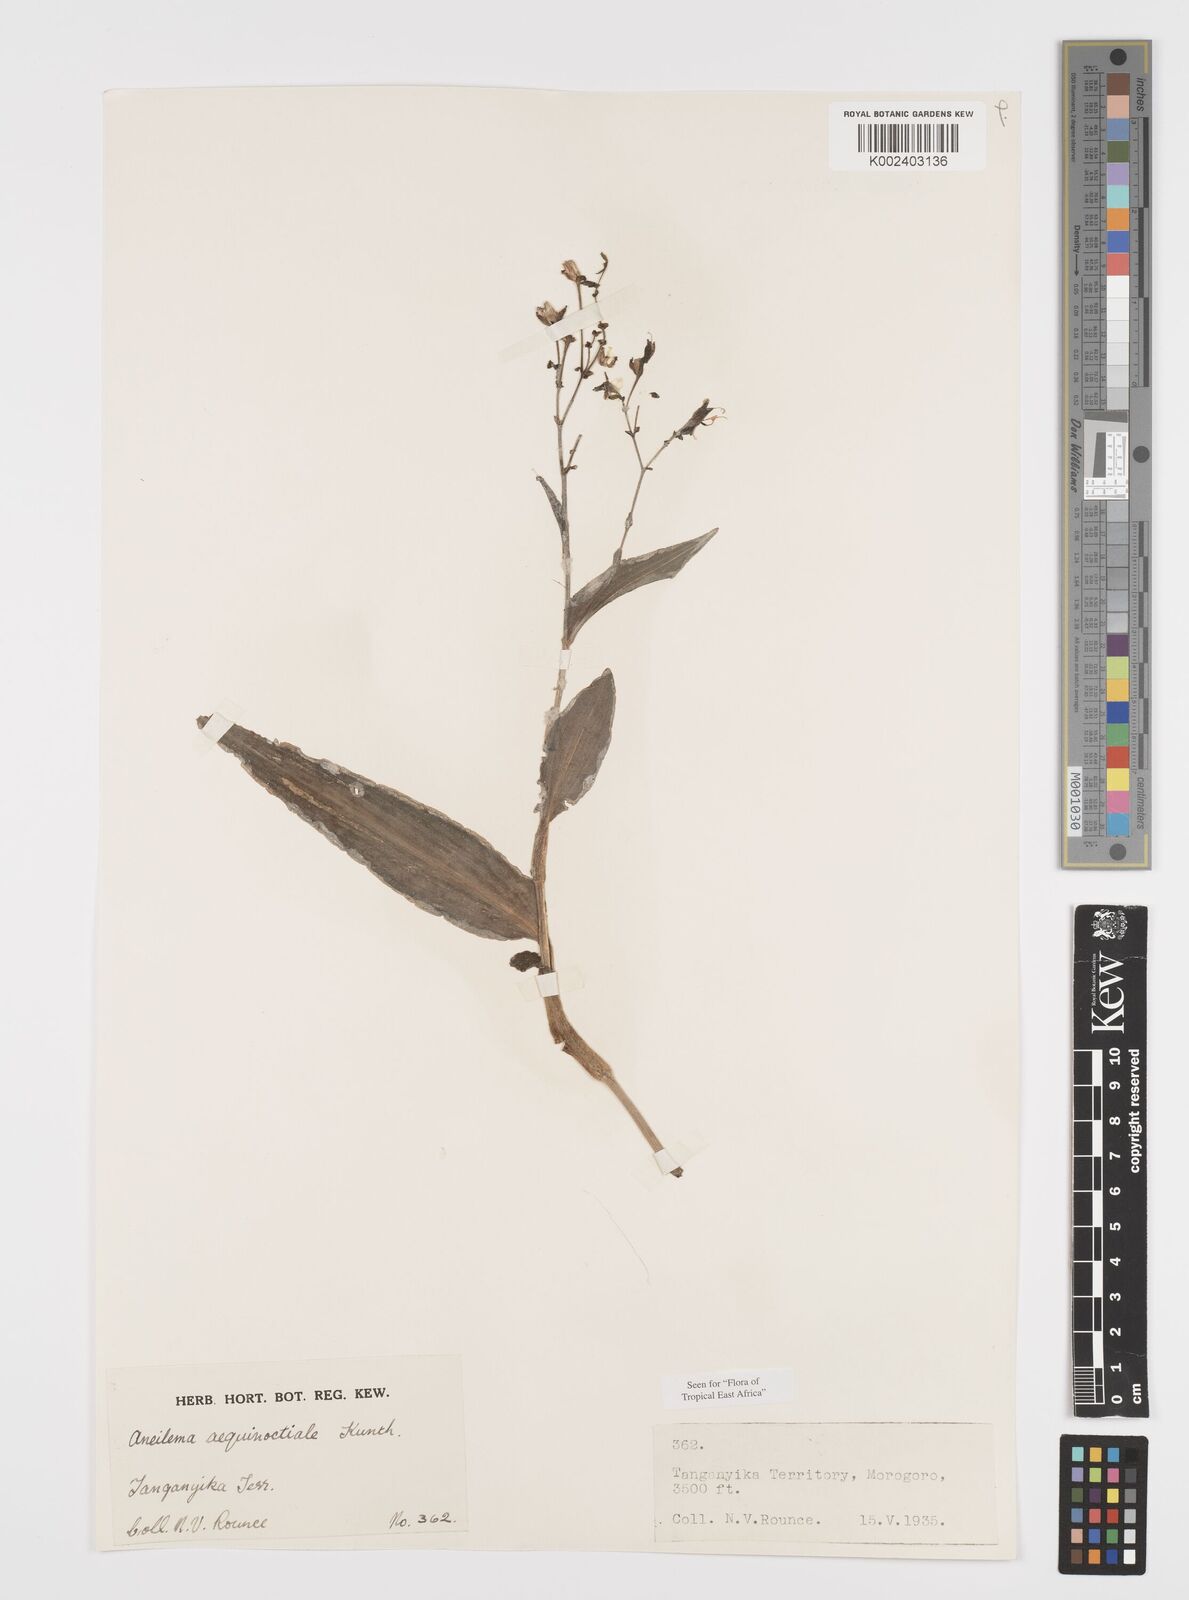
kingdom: Plantae
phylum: Tracheophyta
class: Liliopsida
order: Commelinales
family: Commelinaceae
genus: Aneilema
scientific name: Aneilema aequinoctiale
